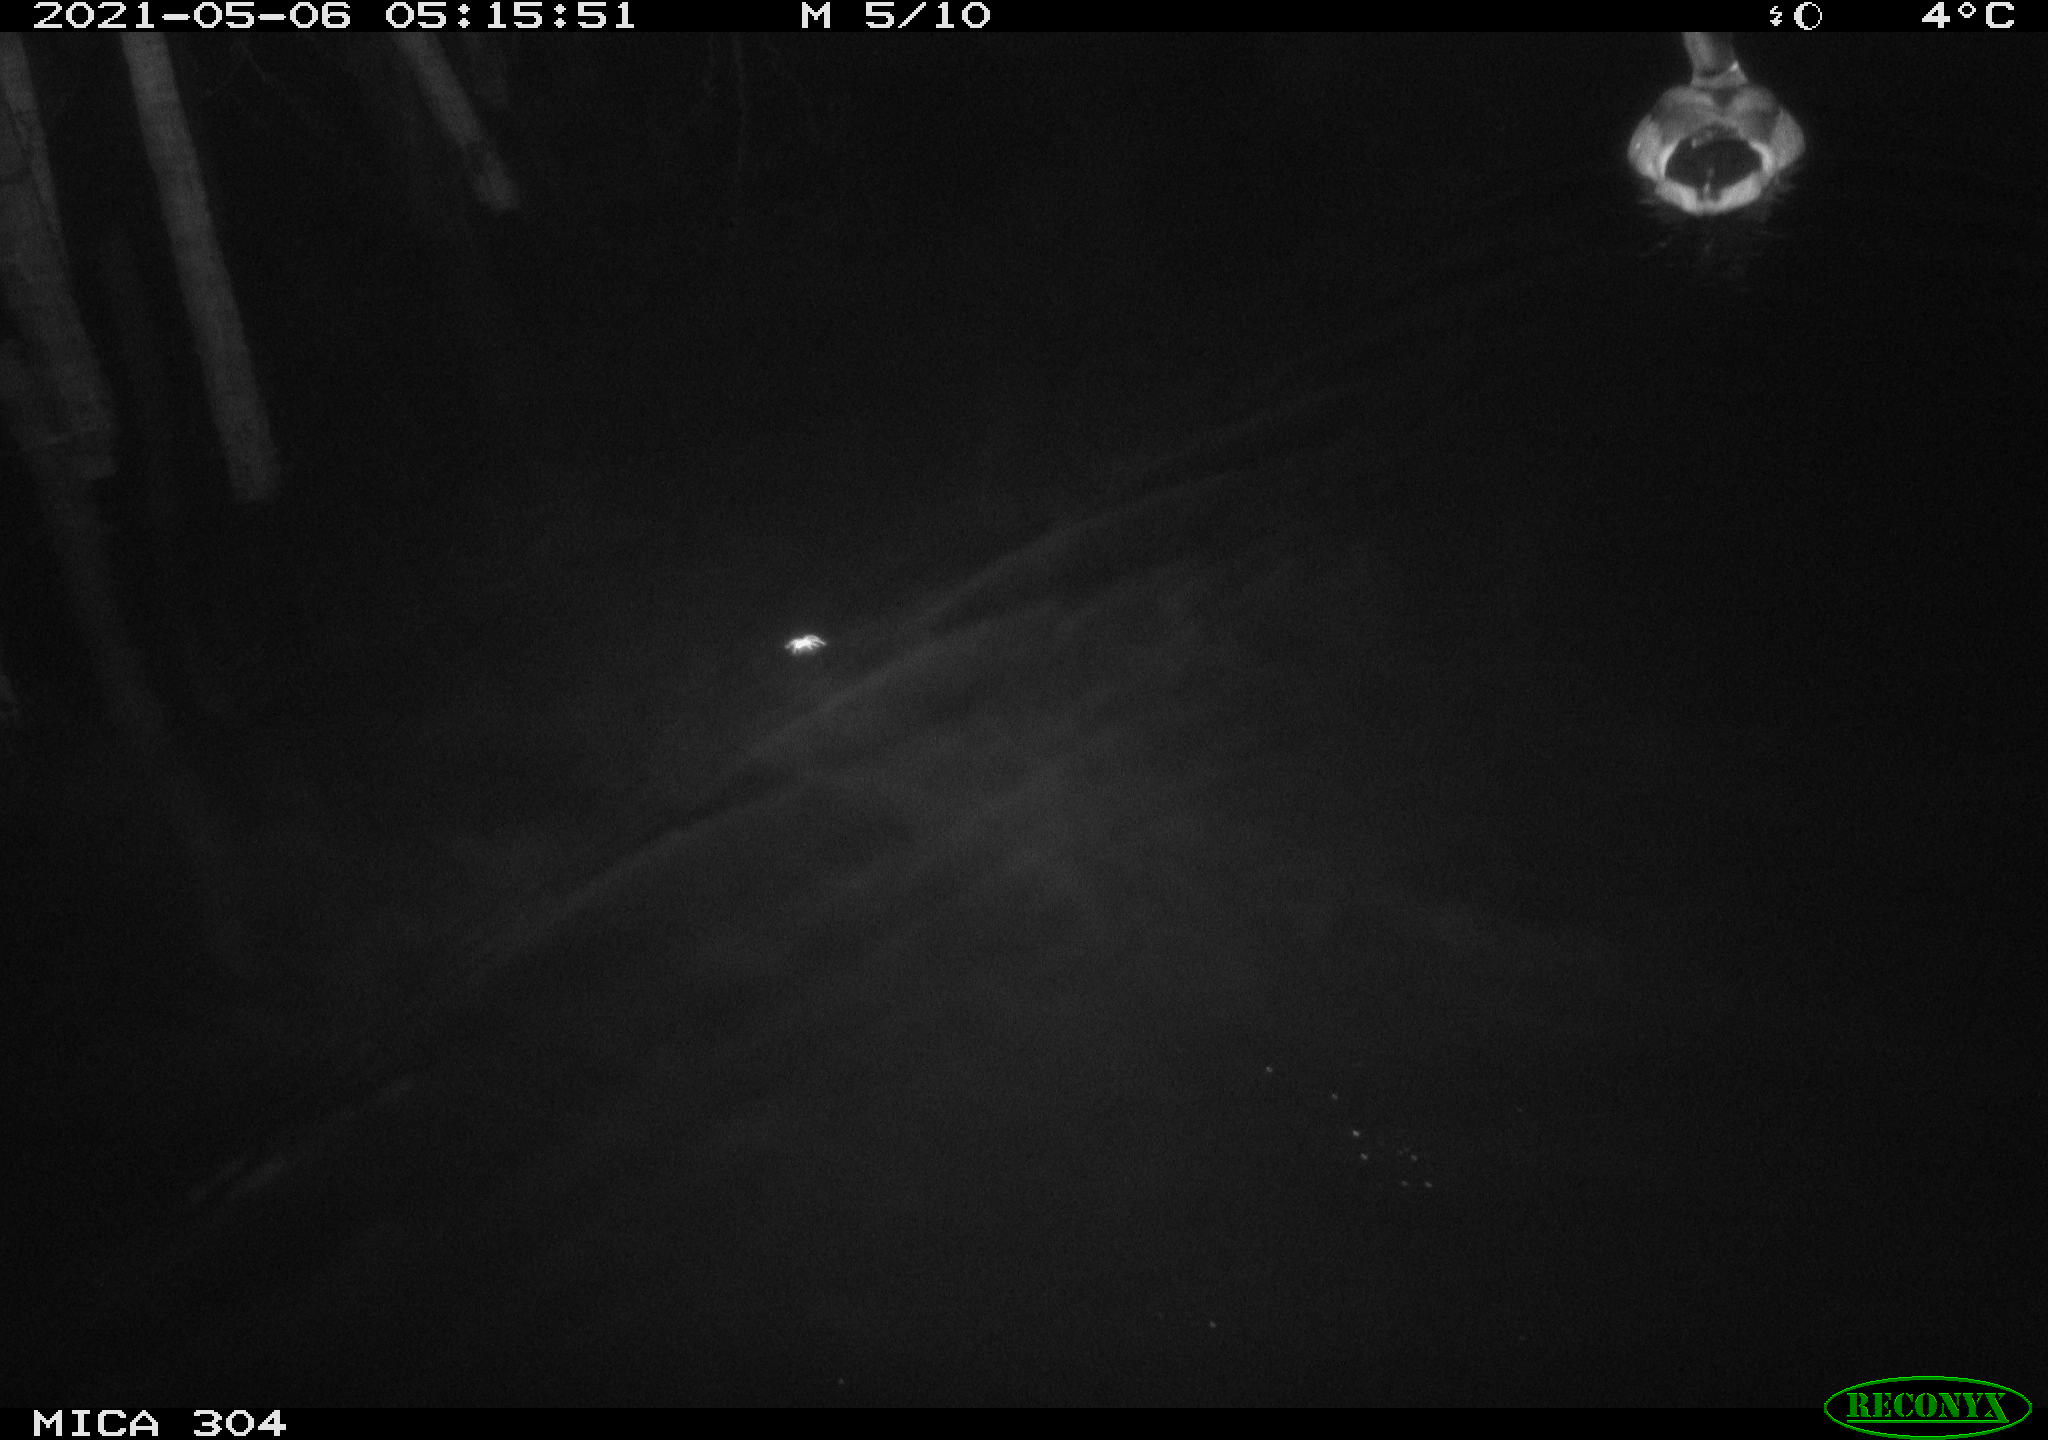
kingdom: Animalia
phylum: Chordata
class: Aves
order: Anseriformes
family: Anatidae
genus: Anas
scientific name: Anas platyrhynchos
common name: Mallard
